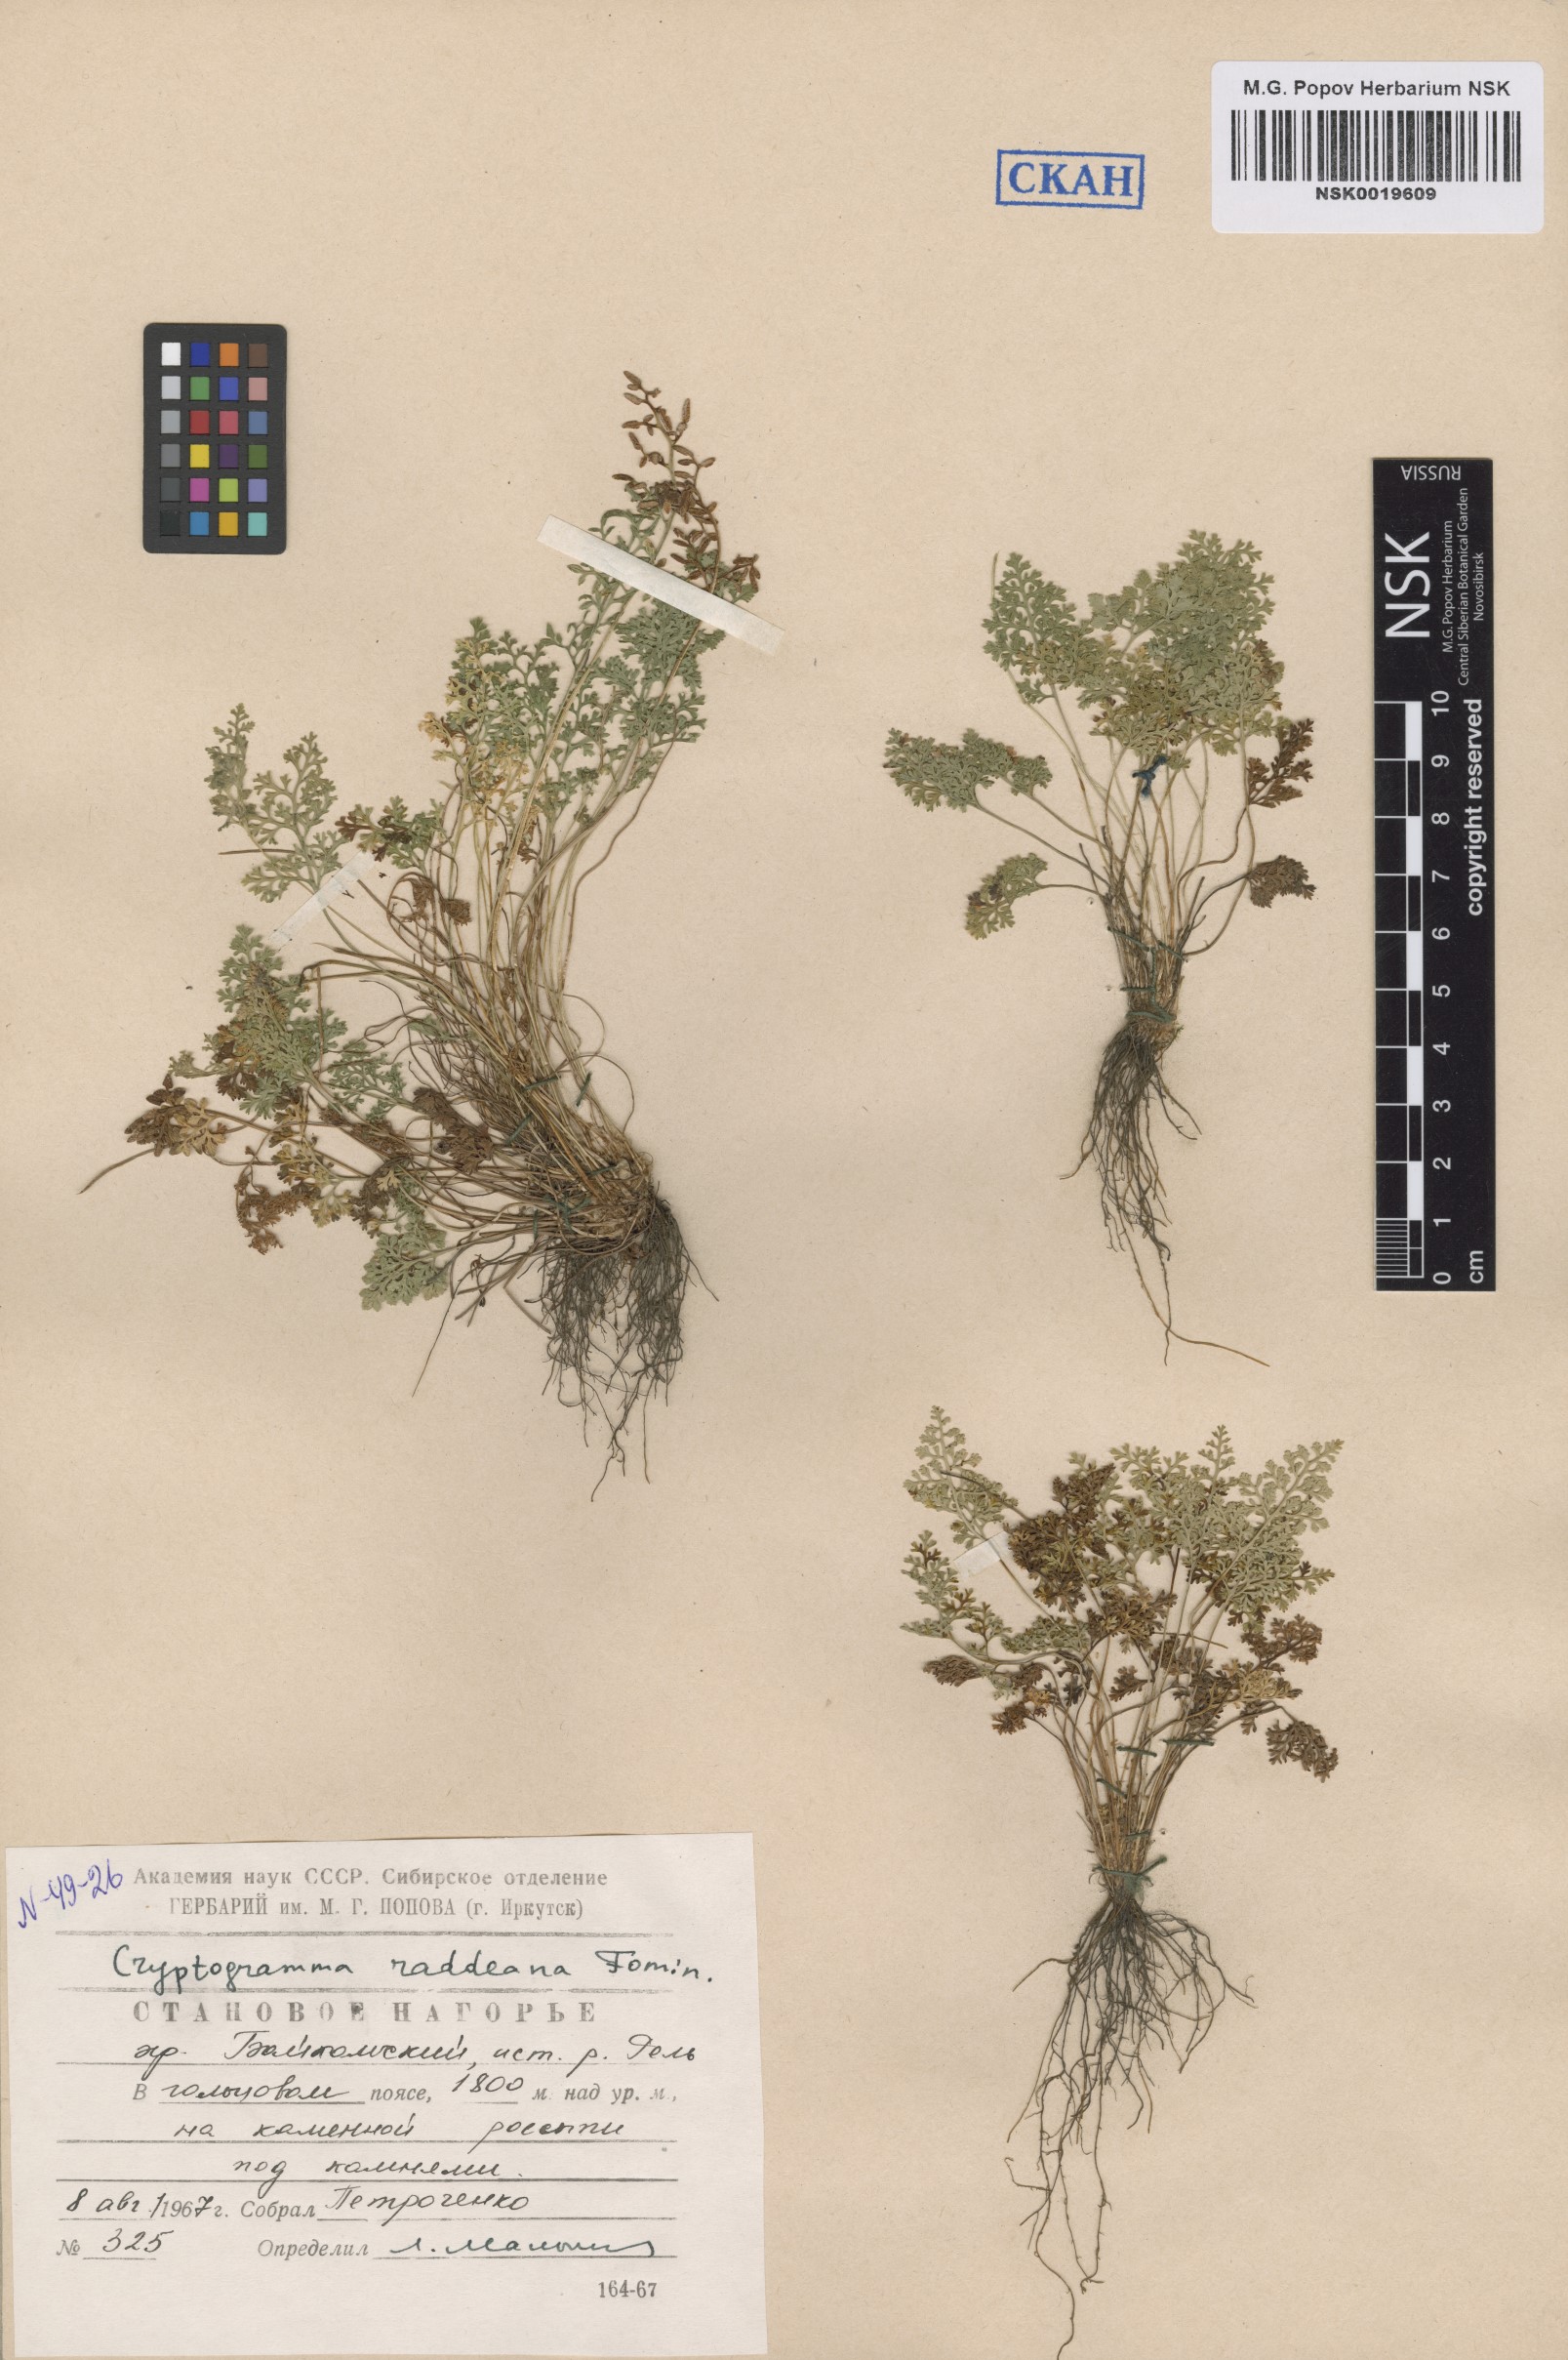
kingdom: Plantae
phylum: Tracheophyta
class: Polypodiopsida
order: Polypodiales
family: Pteridaceae
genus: Cryptogramma
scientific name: Cryptogramma brunoniana
